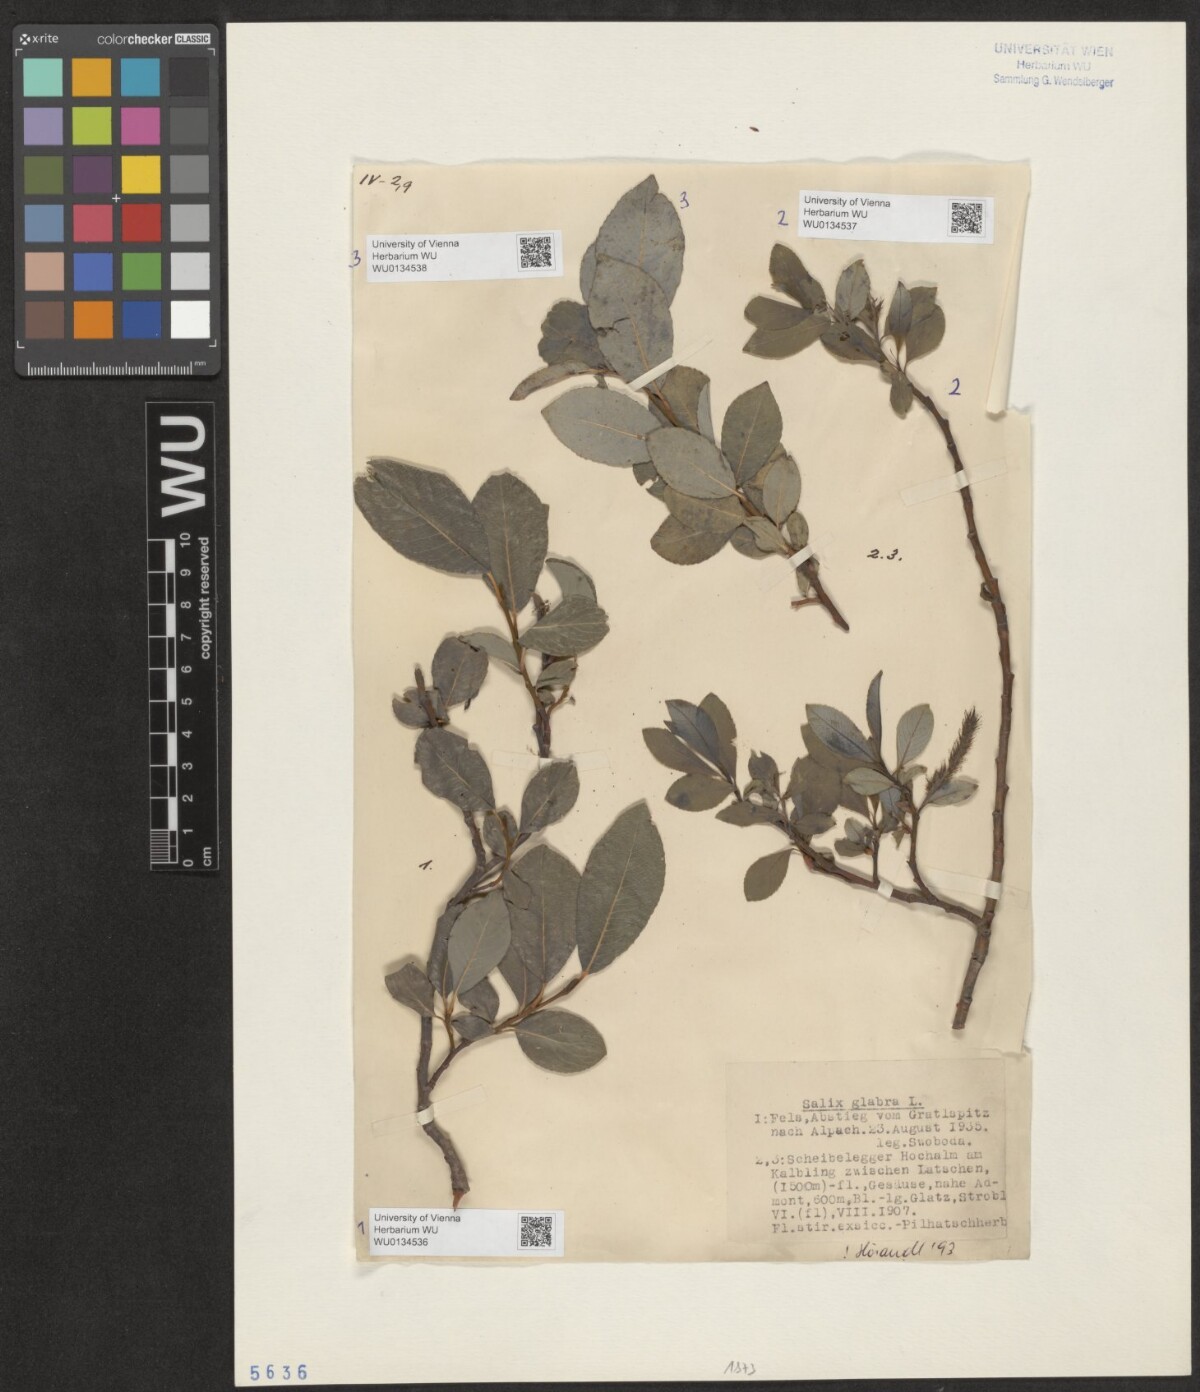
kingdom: Plantae
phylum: Tracheophyta
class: Magnoliopsida
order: Malpighiales
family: Salicaceae
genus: Salix
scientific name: Salix glabra
